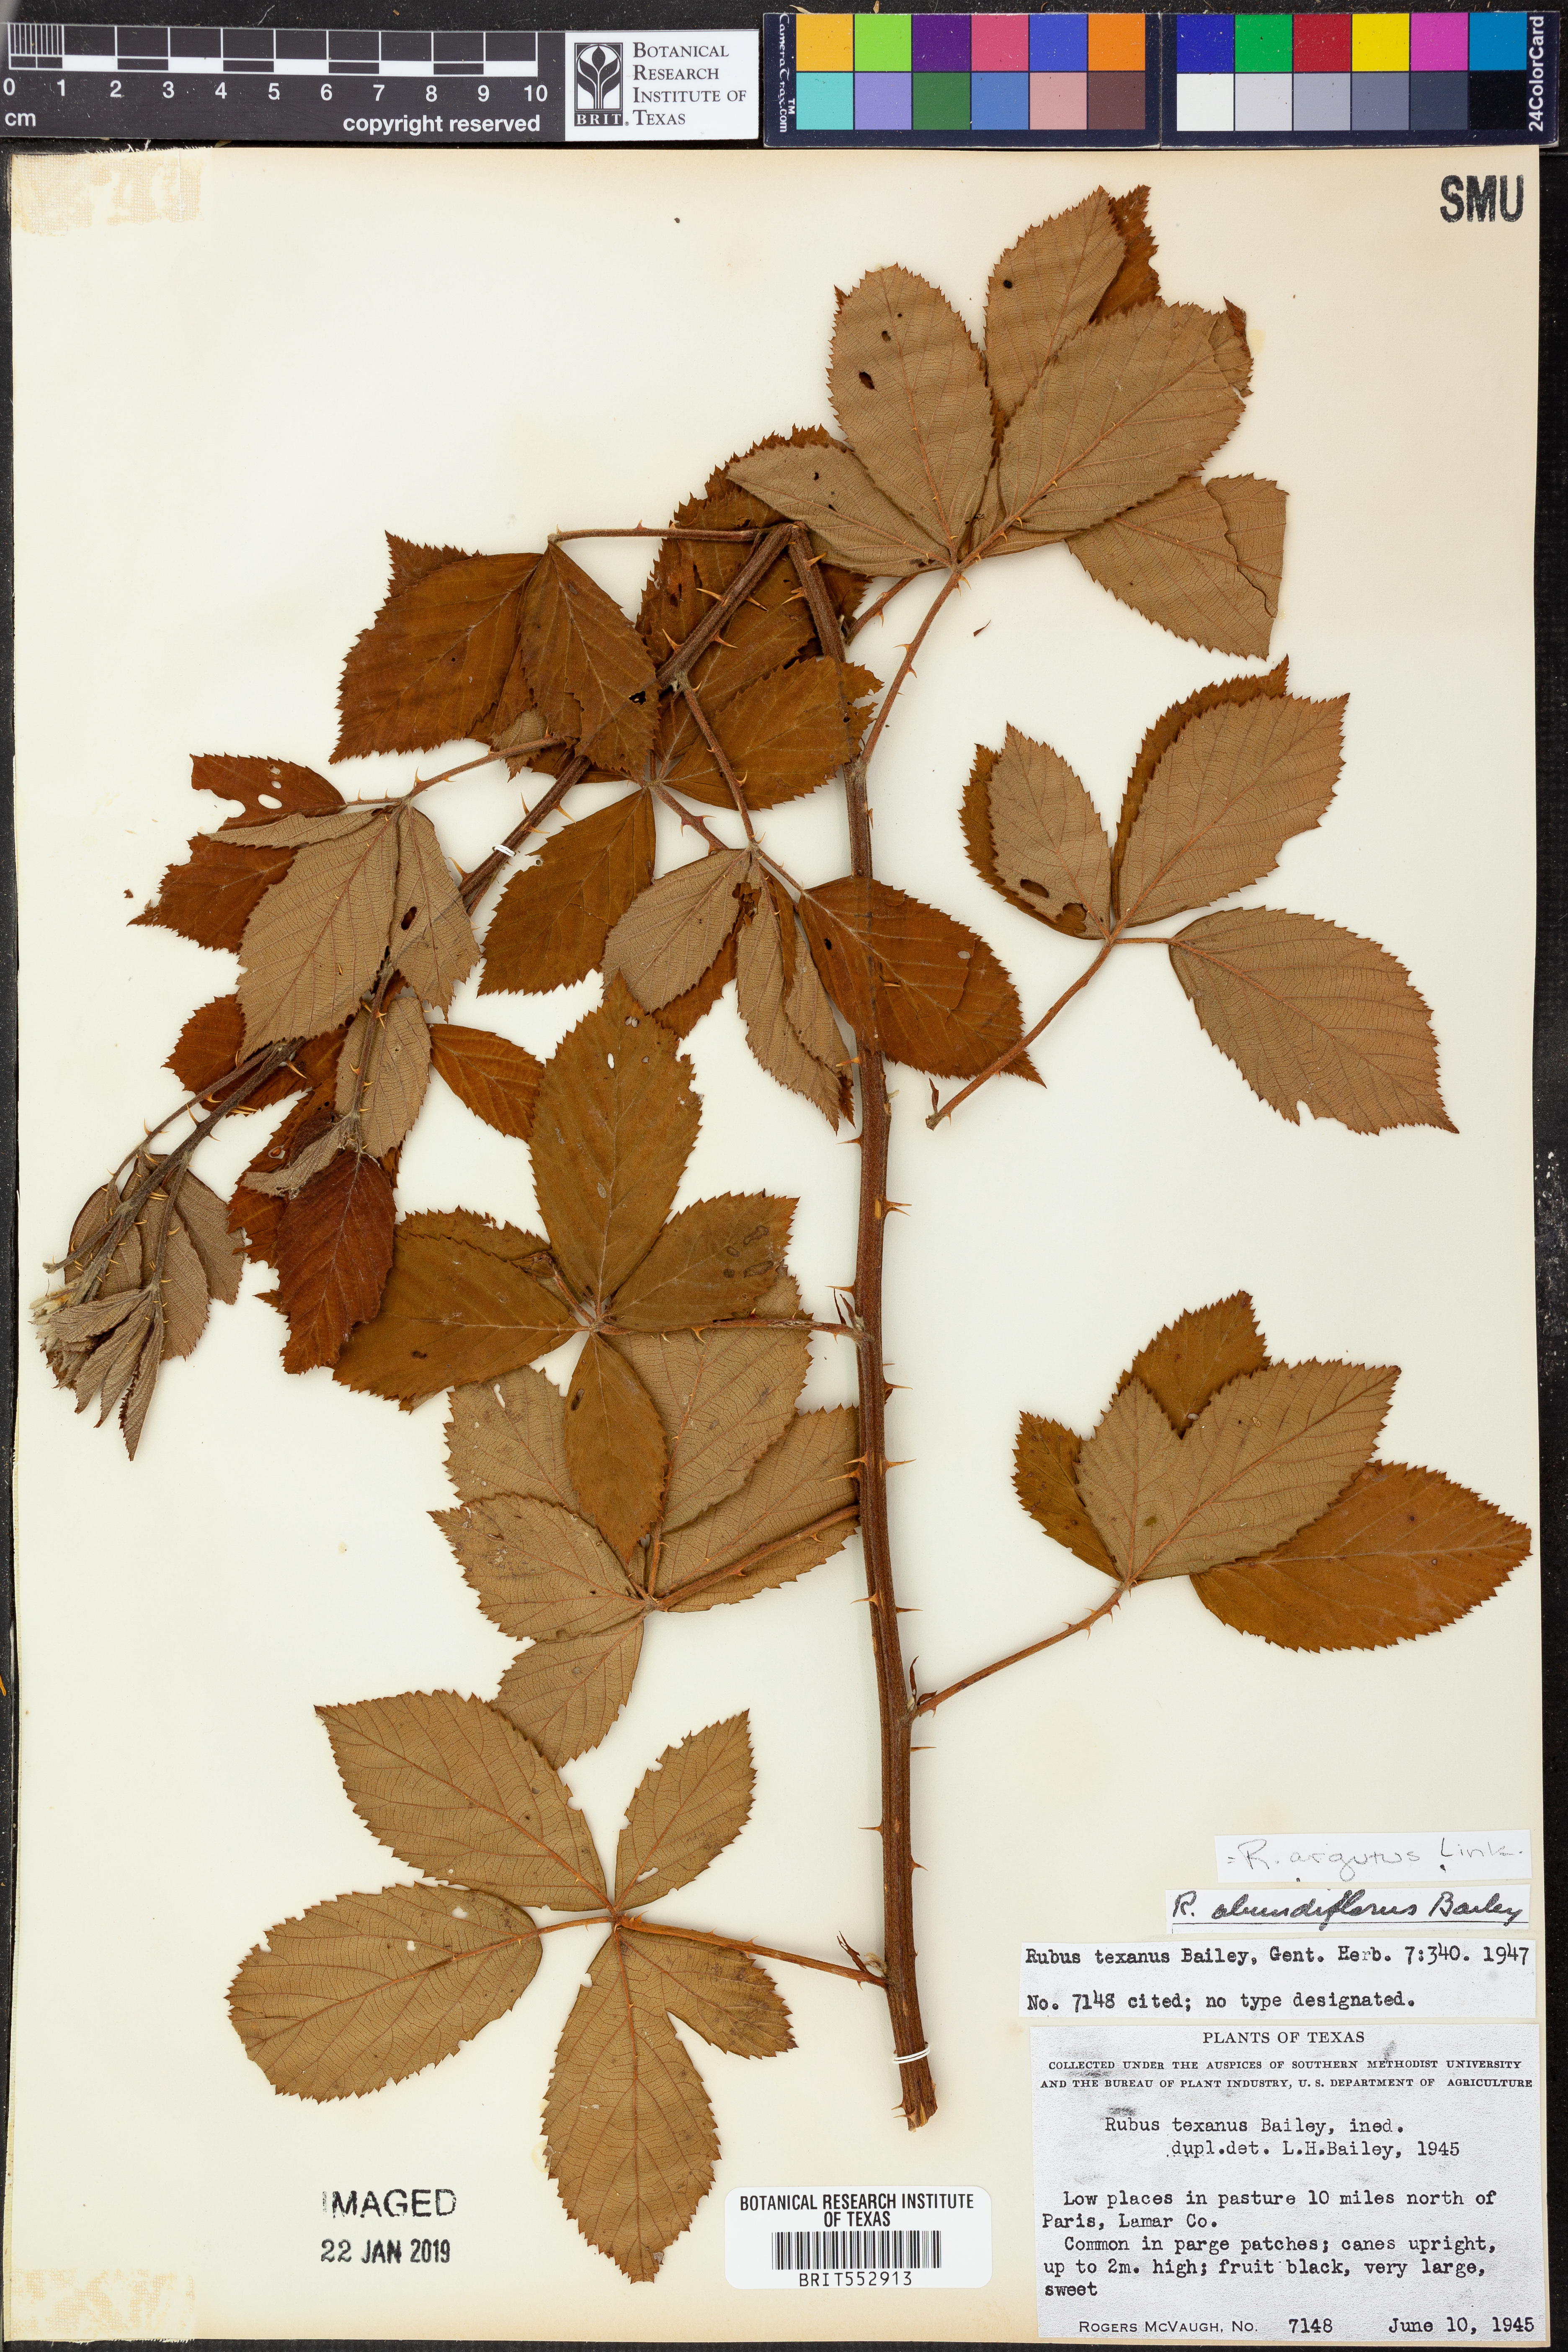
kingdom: Plantae
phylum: Tracheophyta
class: Magnoliopsida
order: Rosales
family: Rosaceae
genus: Rubus
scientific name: Rubus argutus
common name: Sawtooth blackberry
